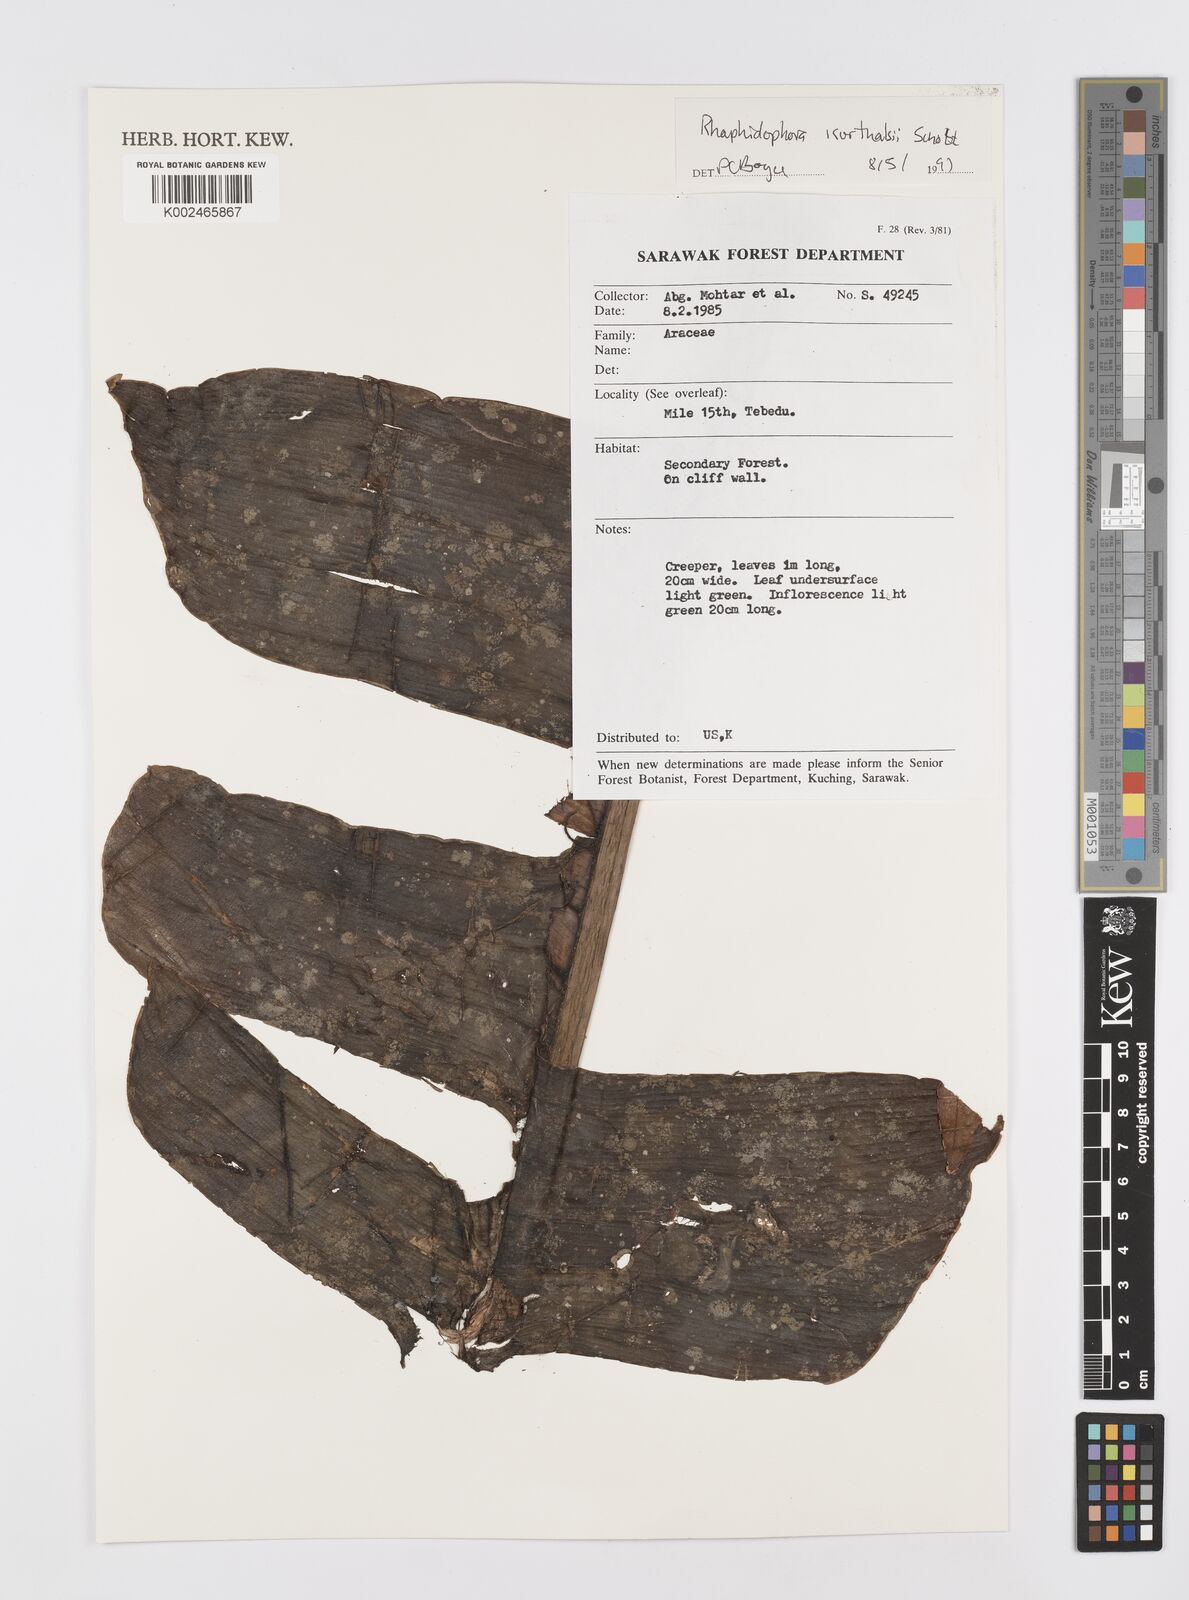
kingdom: Plantae
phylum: Tracheophyta
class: Liliopsida
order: Alismatales
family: Araceae
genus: Rhaphidophora
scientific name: Rhaphidophora korthalsii
